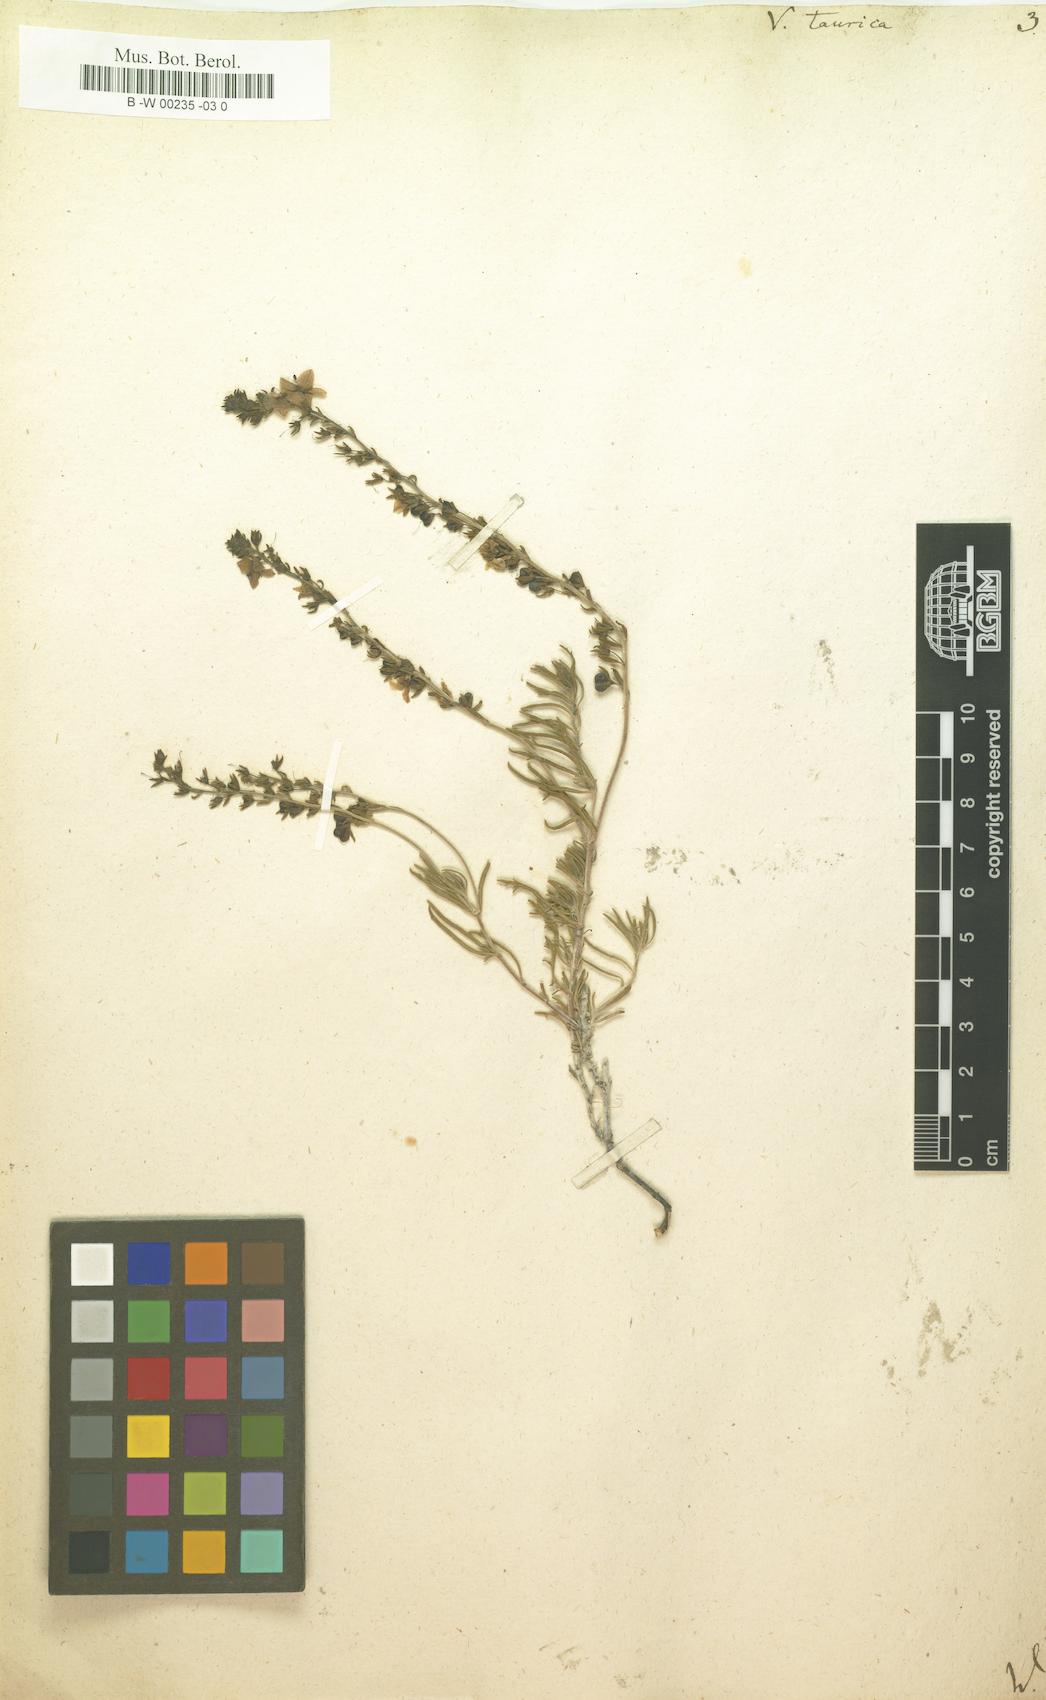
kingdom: Plantae
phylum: Tracheophyta
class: Magnoliopsida
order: Lamiales
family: Plantaginaceae
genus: Veronica
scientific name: Veronica taurica
